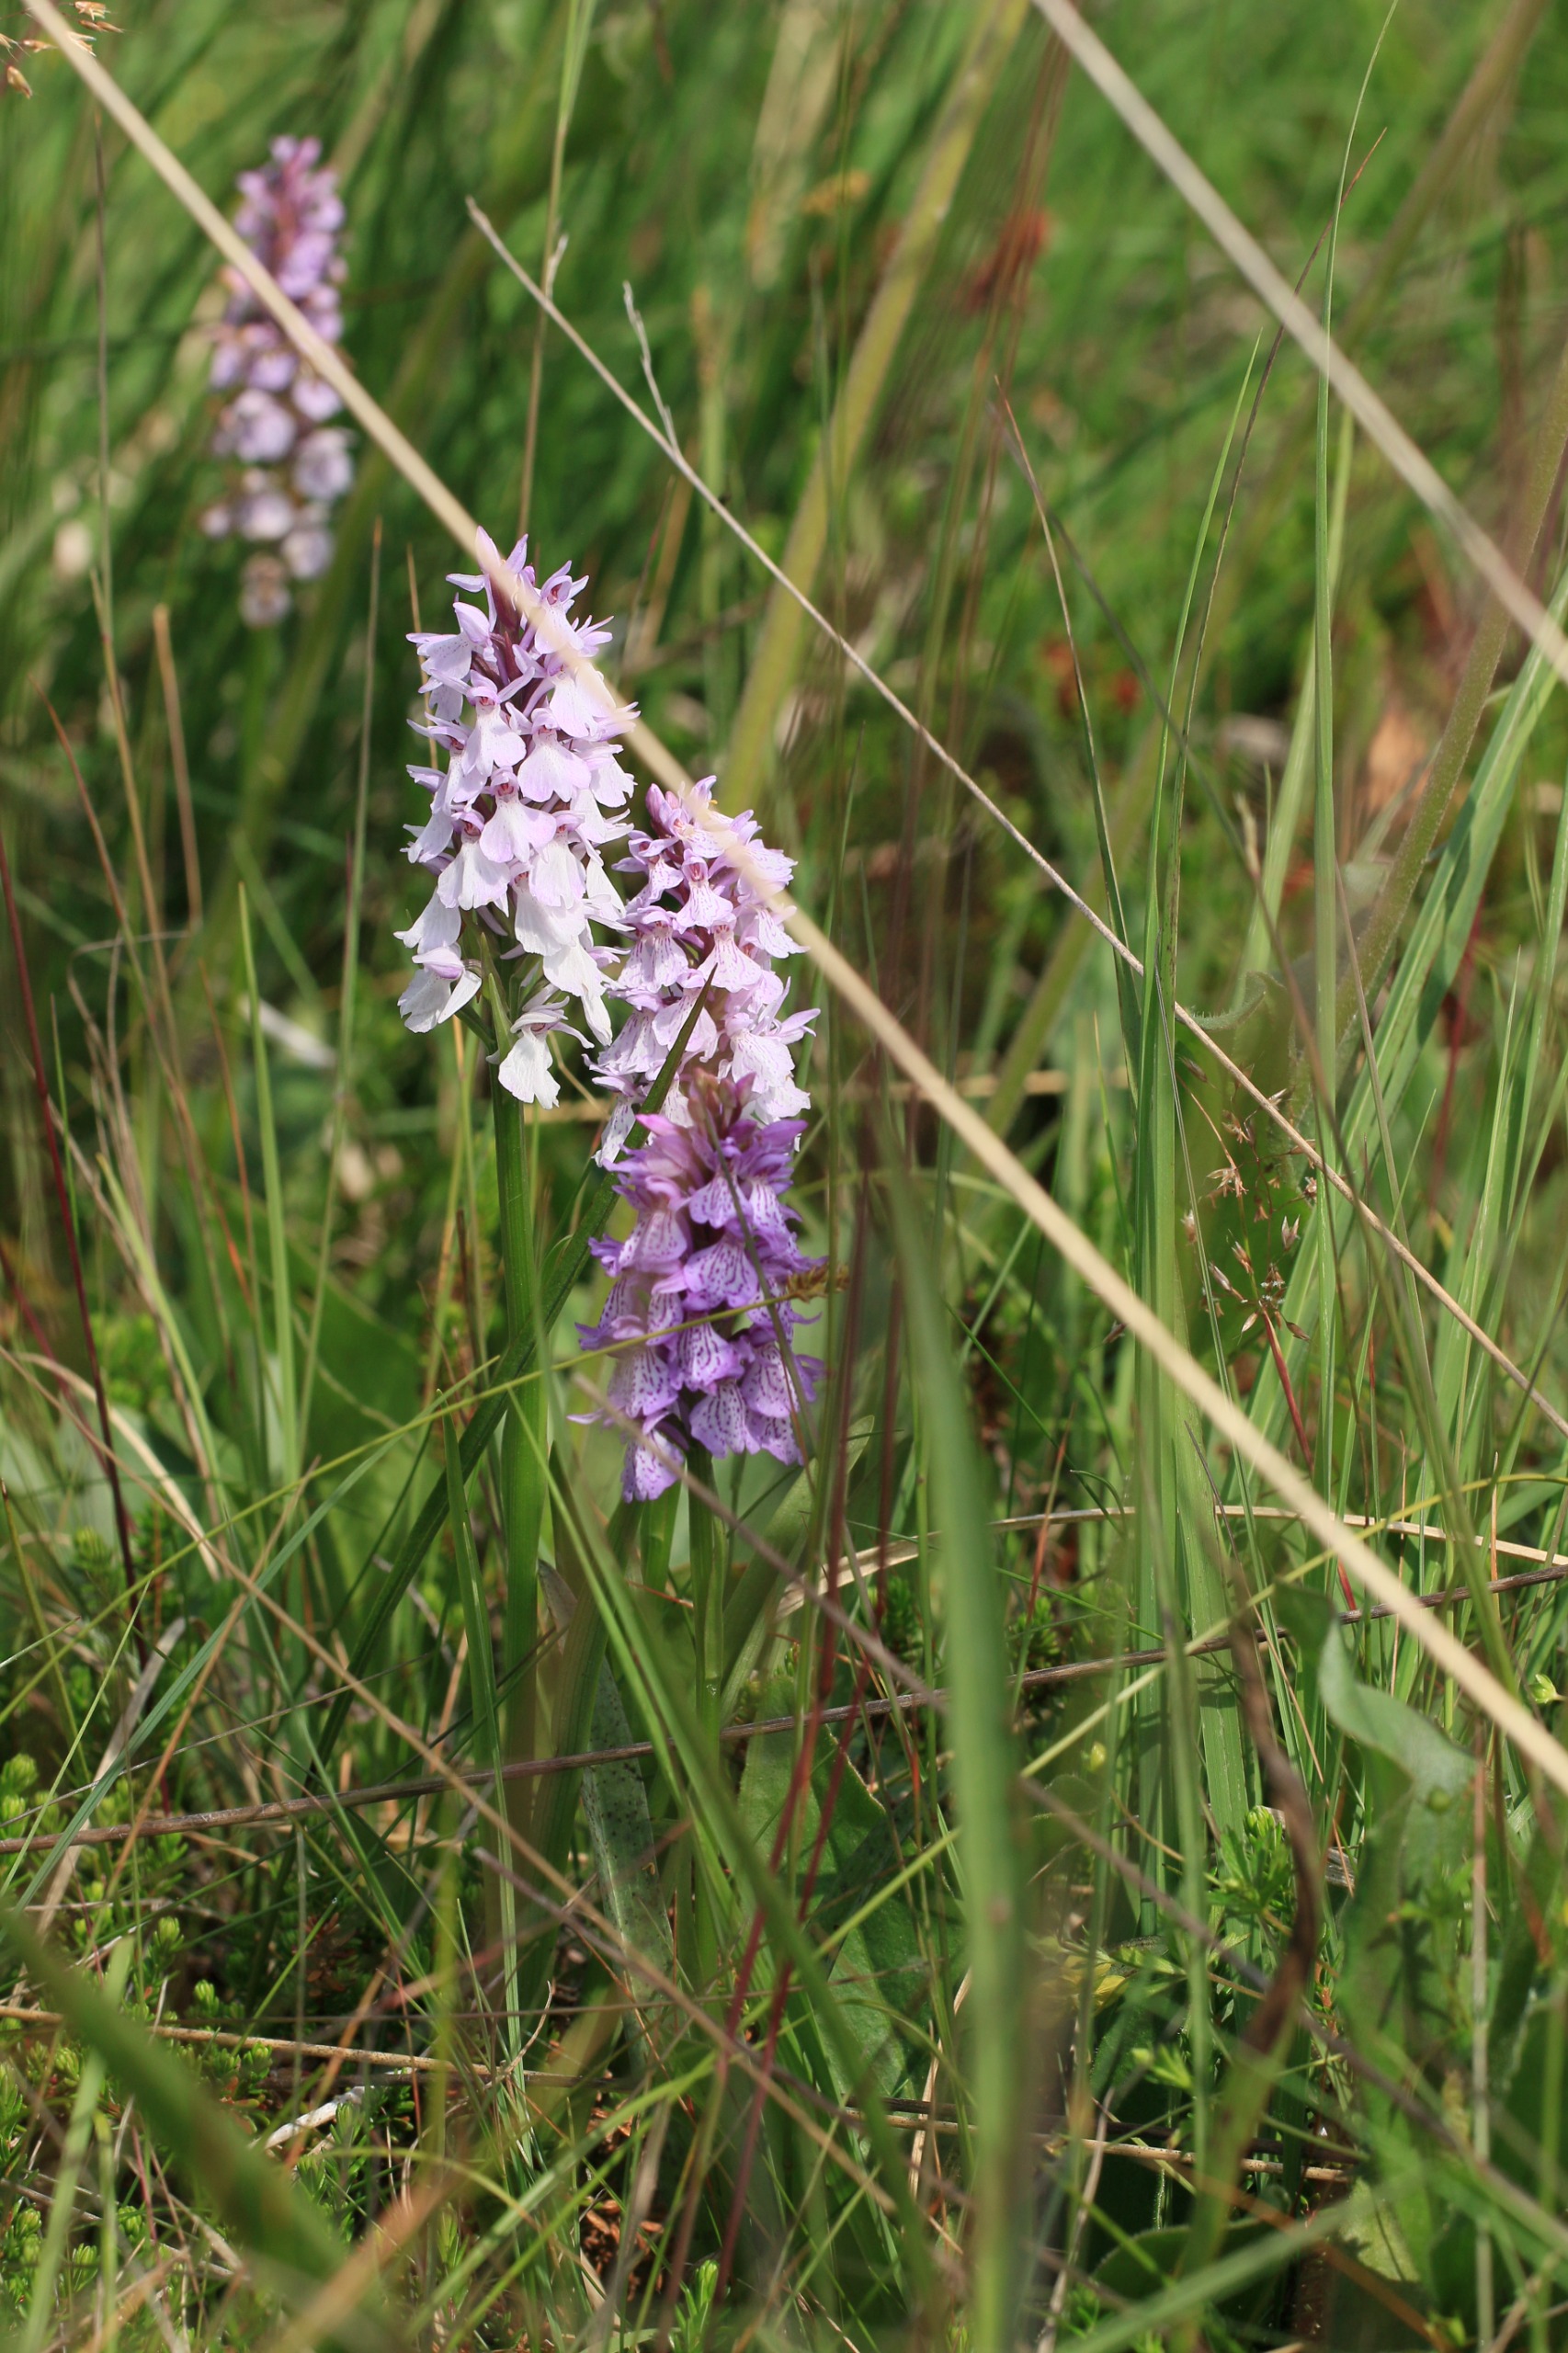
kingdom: Plantae
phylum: Tracheophyta
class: Liliopsida
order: Asparagales
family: Orchidaceae
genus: Dactylorhiza
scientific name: Dactylorhiza maculata
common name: Plettet gøgeurt
